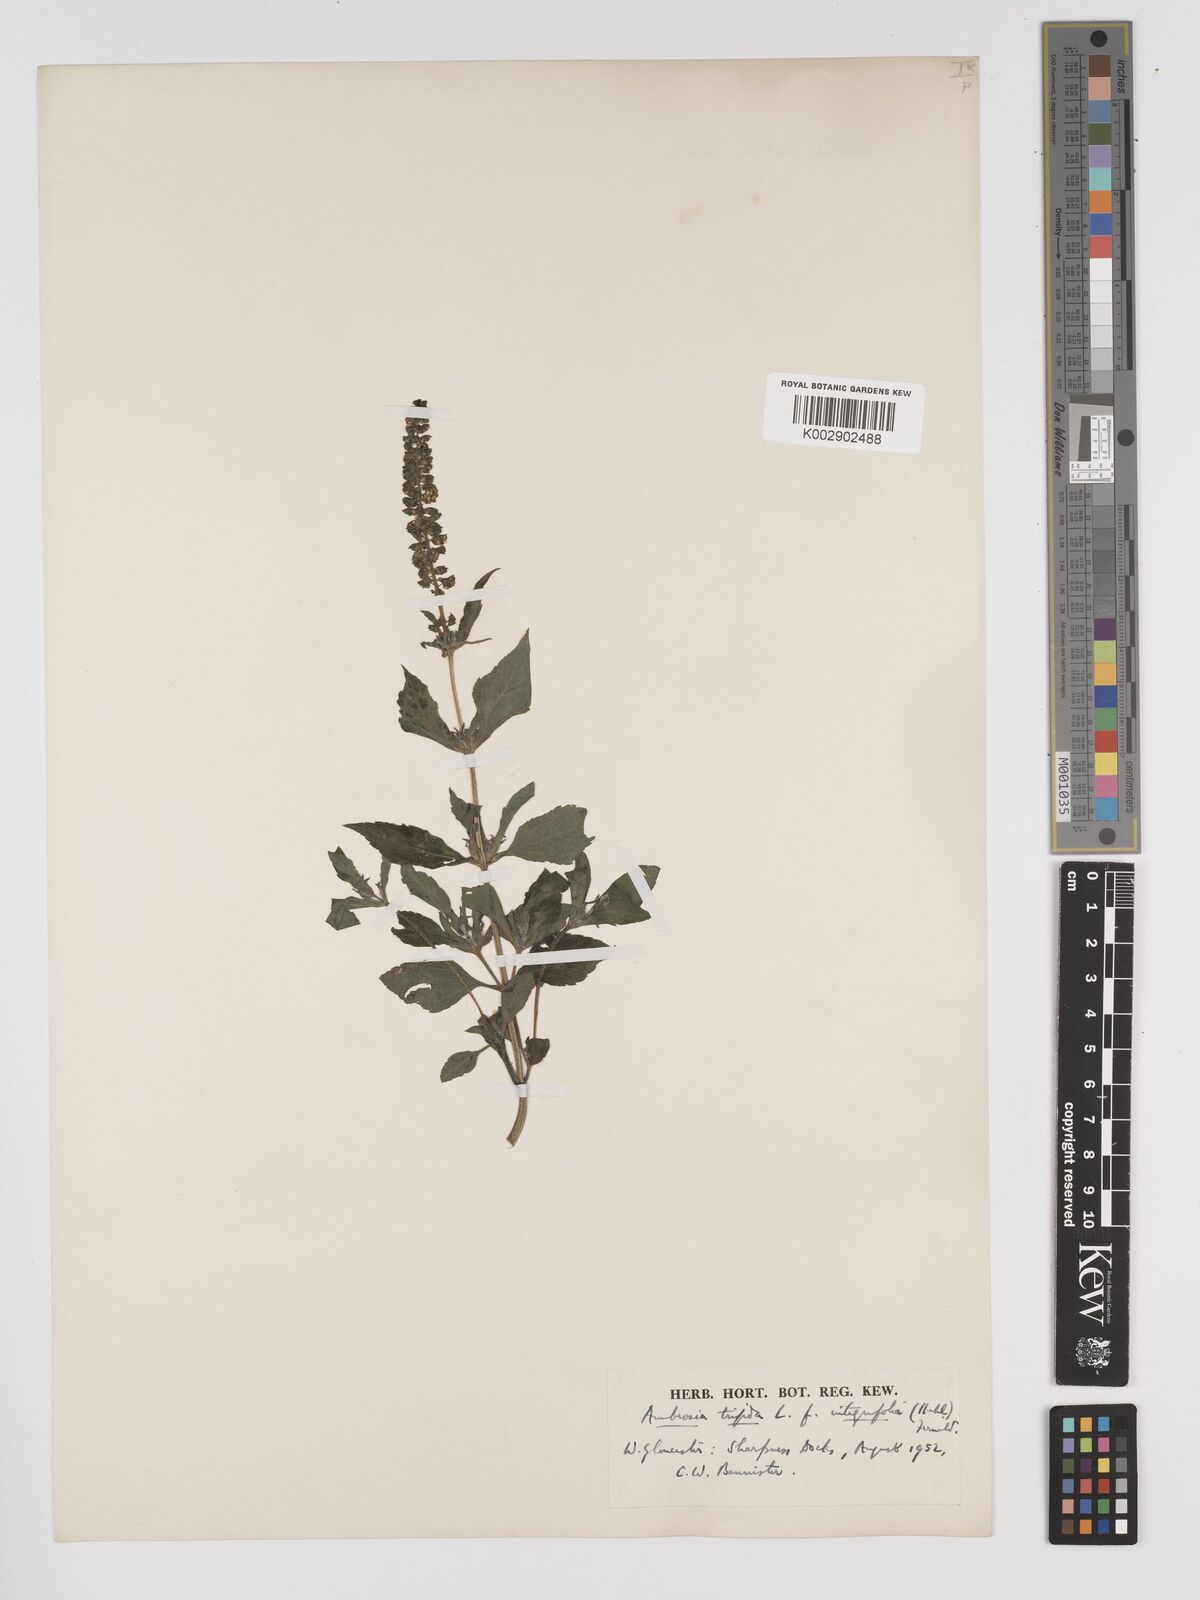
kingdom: Plantae
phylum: Tracheophyta
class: Magnoliopsida
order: Asterales
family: Asteraceae
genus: Ambrosia
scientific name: Ambrosia trifida
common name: Giant ragweed
